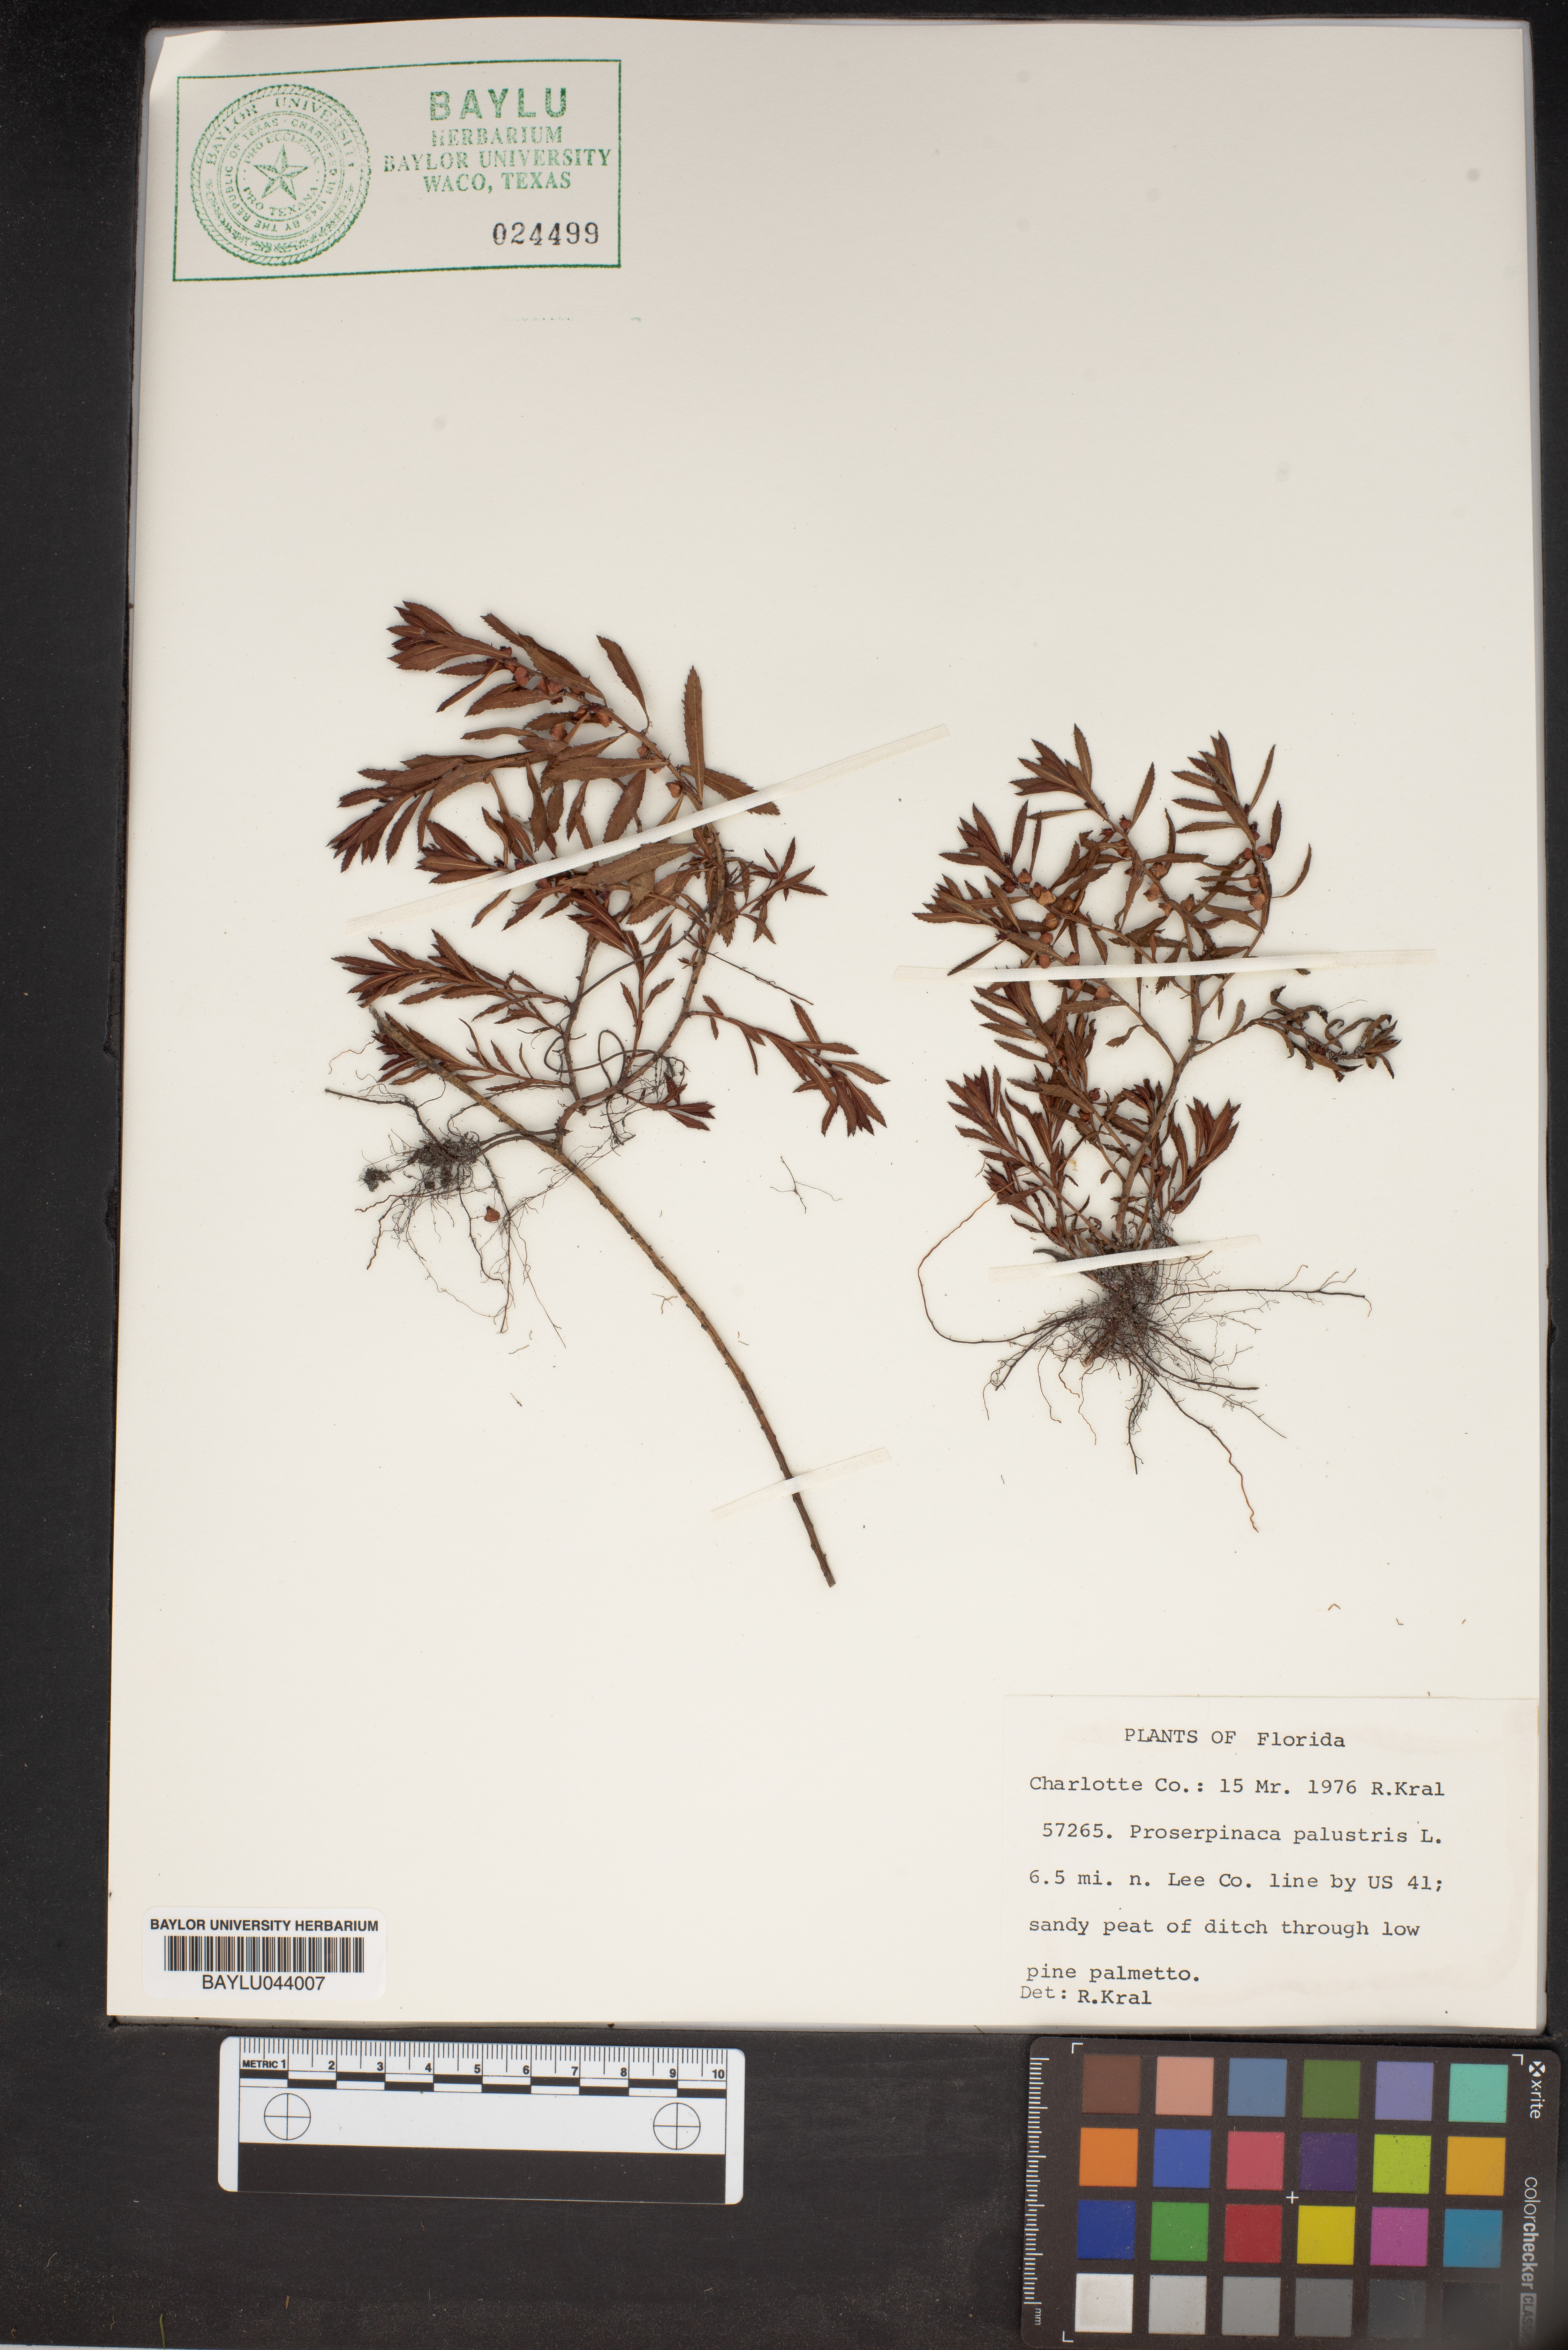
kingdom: Plantae
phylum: Tracheophyta
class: Magnoliopsida
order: Saxifragales
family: Haloragaceae
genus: Proserpinaca
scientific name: Proserpinaca palustris
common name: Marsh mermaidweed
